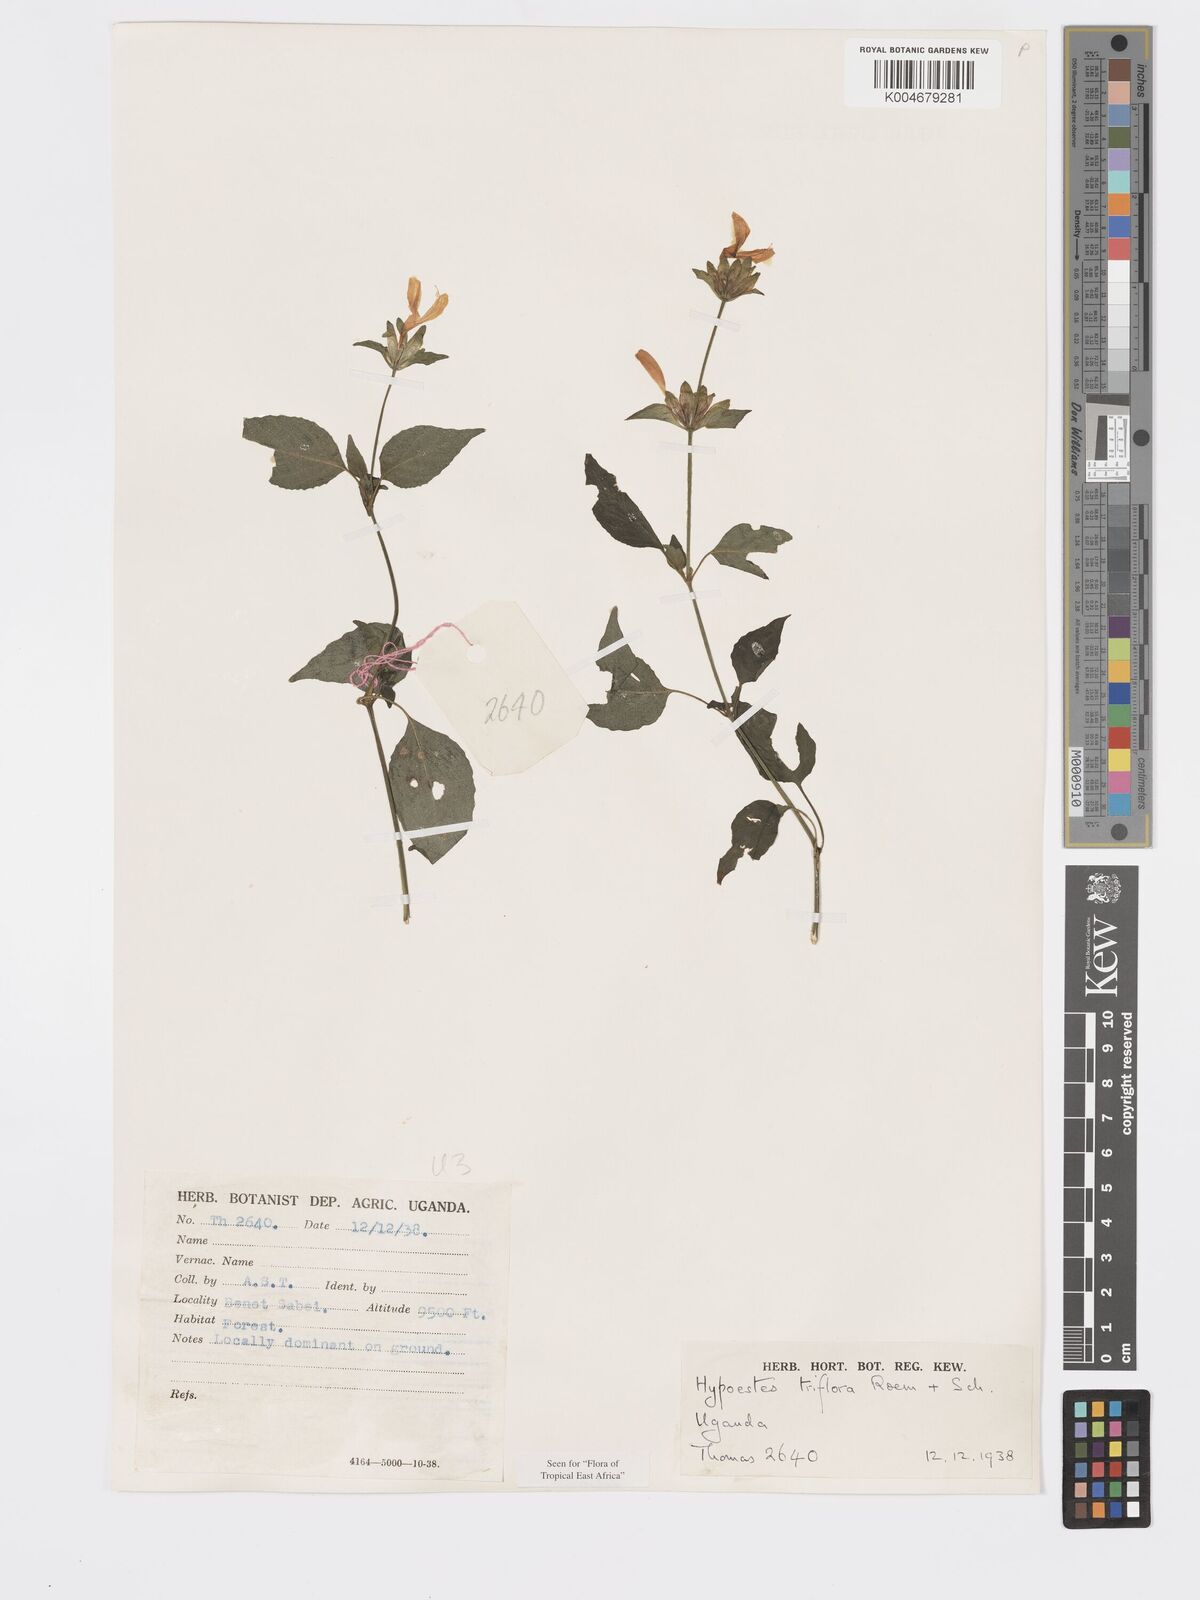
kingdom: Plantae
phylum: Tracheophyta
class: Magnoliopsida
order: Lamiales
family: Acanthaceae
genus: Hypoestes
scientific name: Hypoestes triflora
